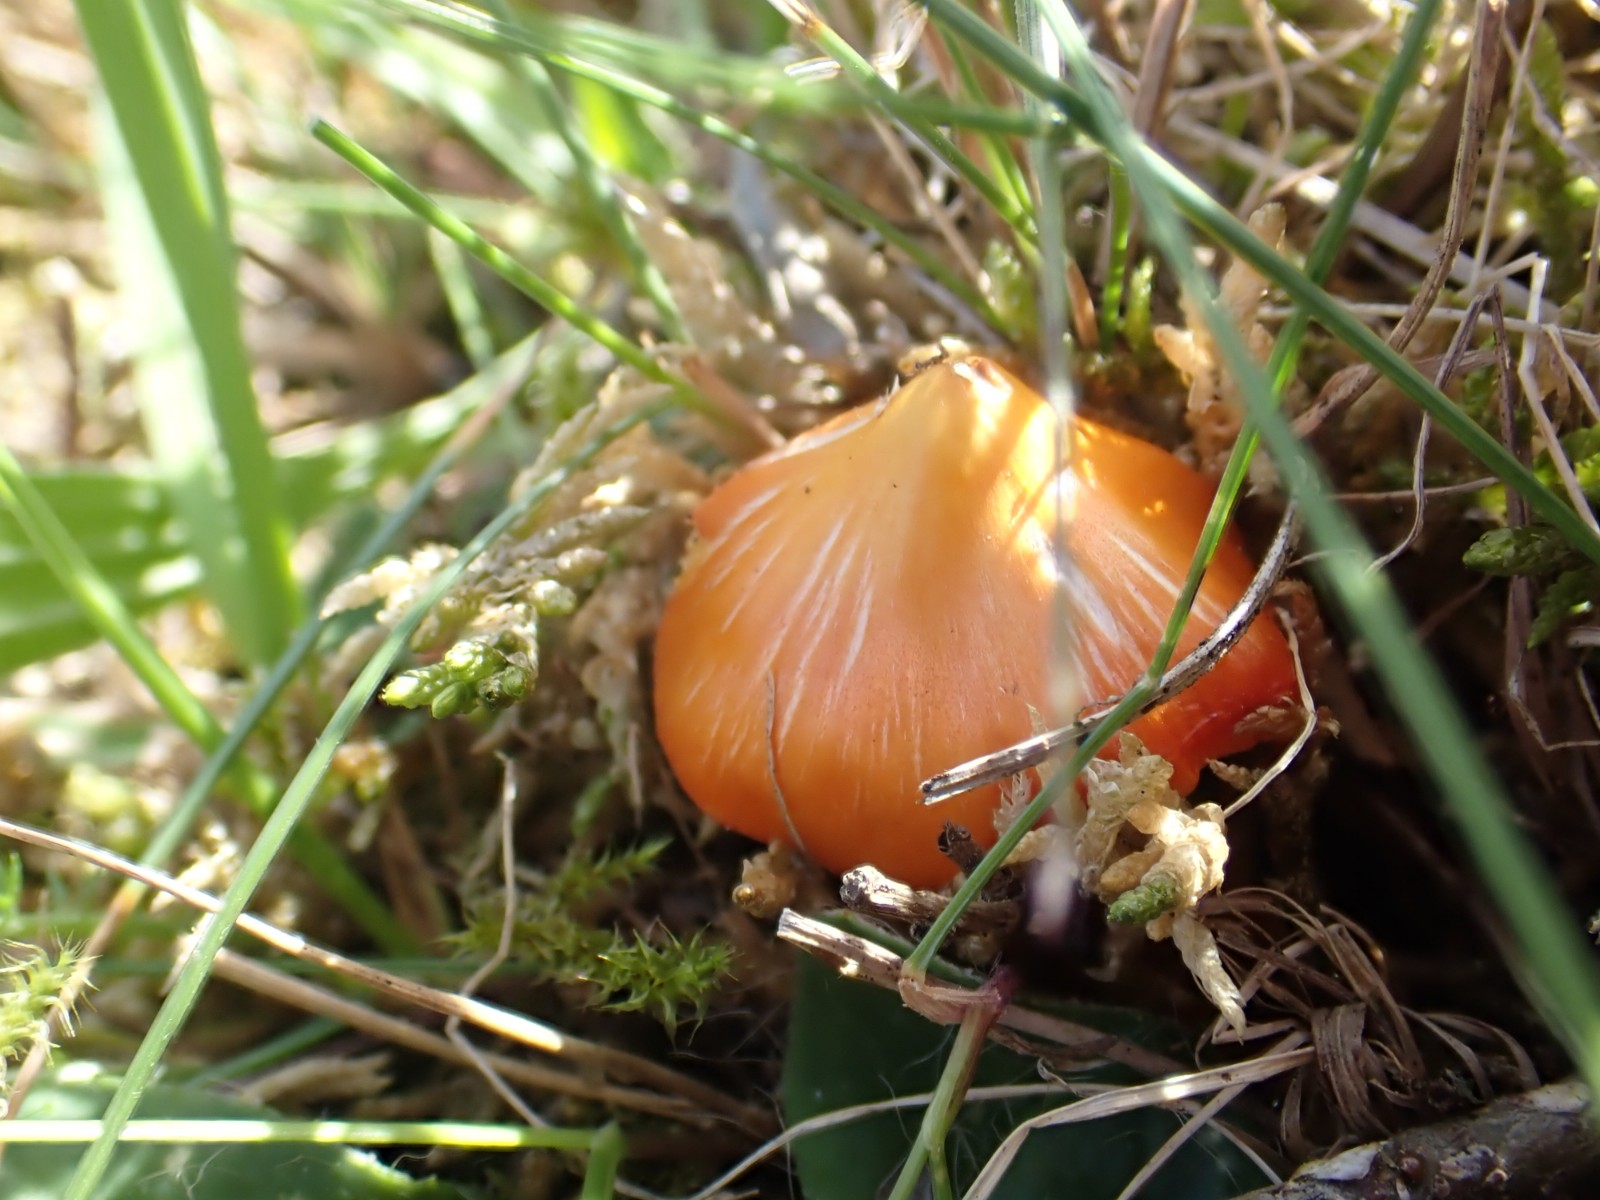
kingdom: Fungi
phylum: Basidiomycota
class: Agaricomycetes
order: Agaricales
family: Hygrophoraceae
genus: Hygrocybe
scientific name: Hygrocybe acutoconica
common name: spidspuklet vokshat
